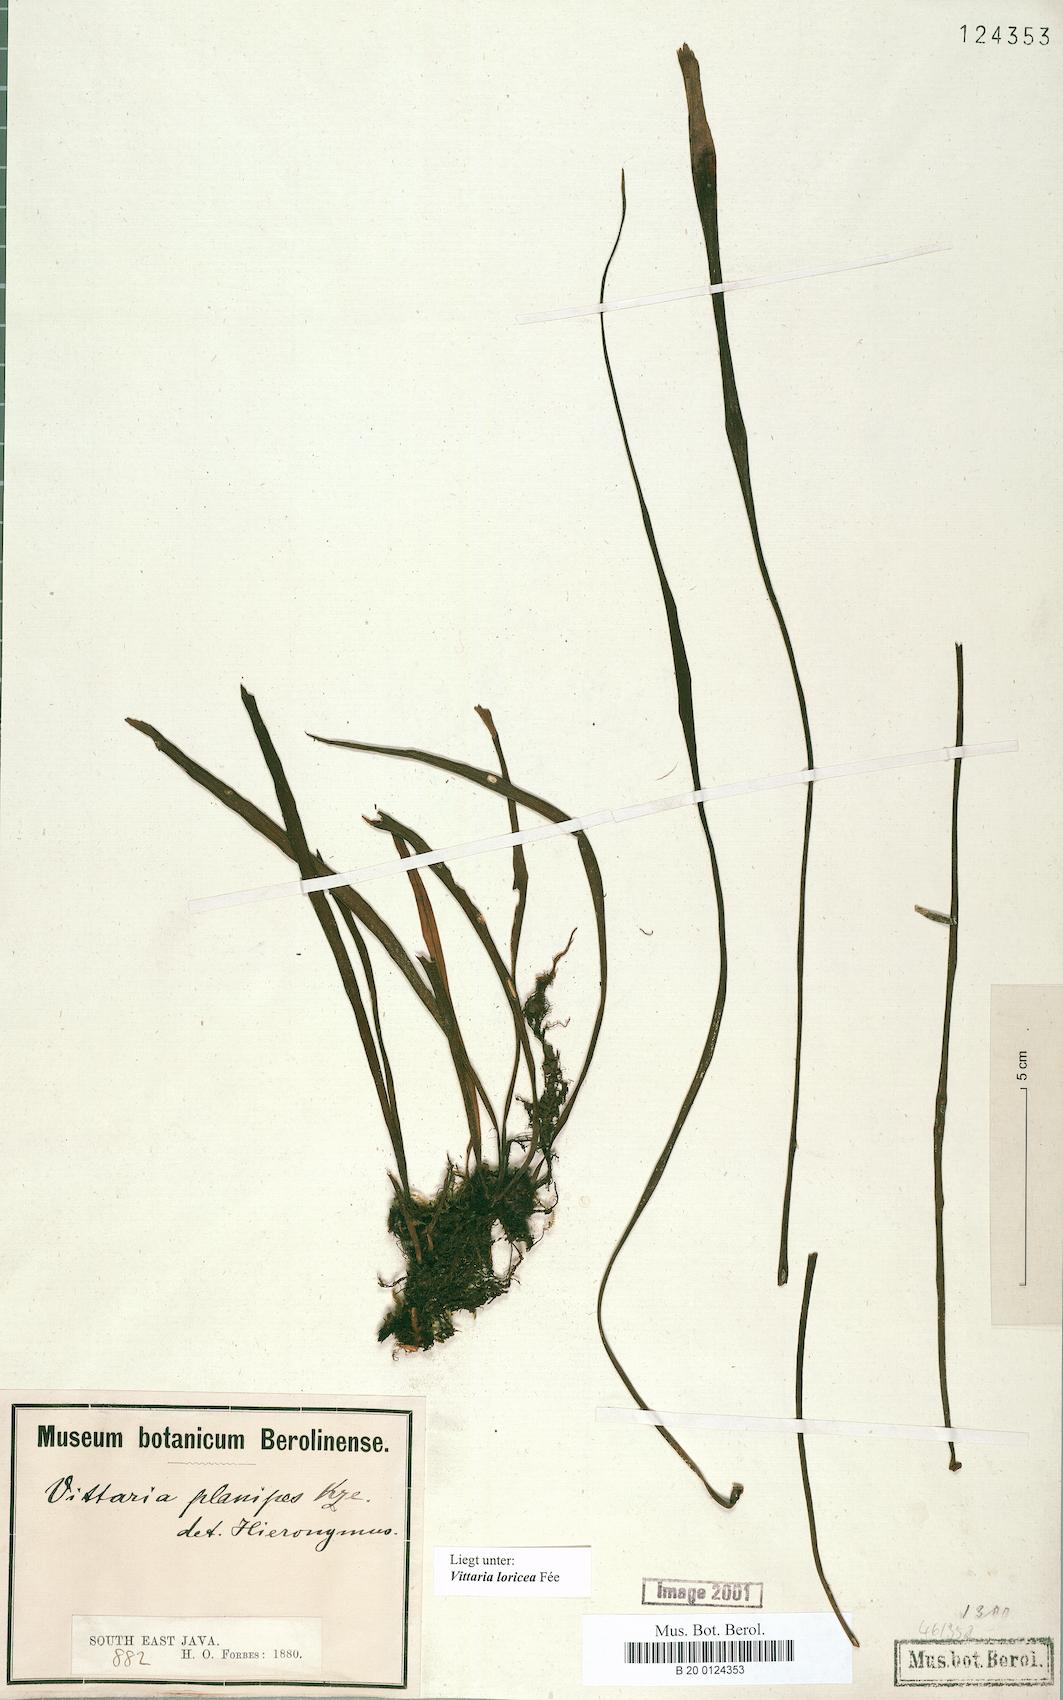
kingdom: Plantae
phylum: Tracheophyta
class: Polypodiopsida
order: Polypodiales
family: Pteridaceae
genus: Haplopteris
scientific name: Haplopteris zosterifolia
